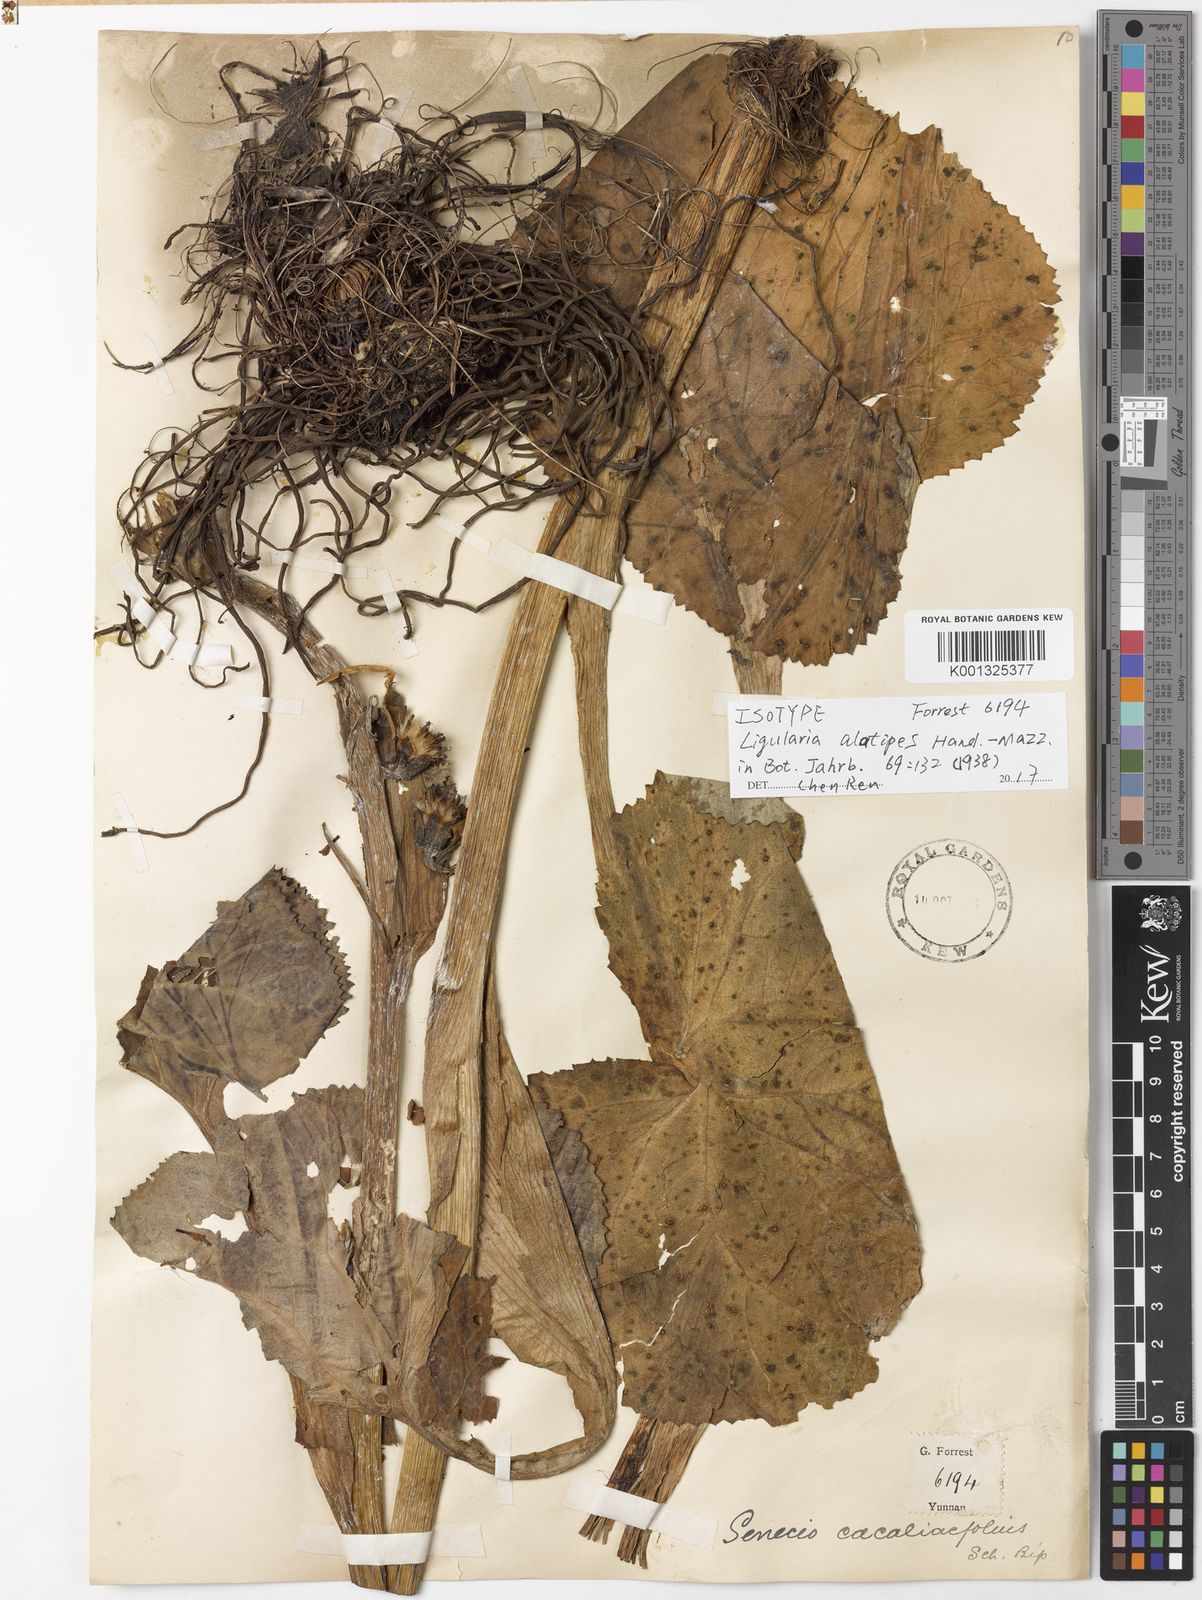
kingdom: Plantae
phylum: Tracheophyta
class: Magnoliopsida
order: Asterales
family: Asteraceae
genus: Ligularia
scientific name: Ligularia alatipes
